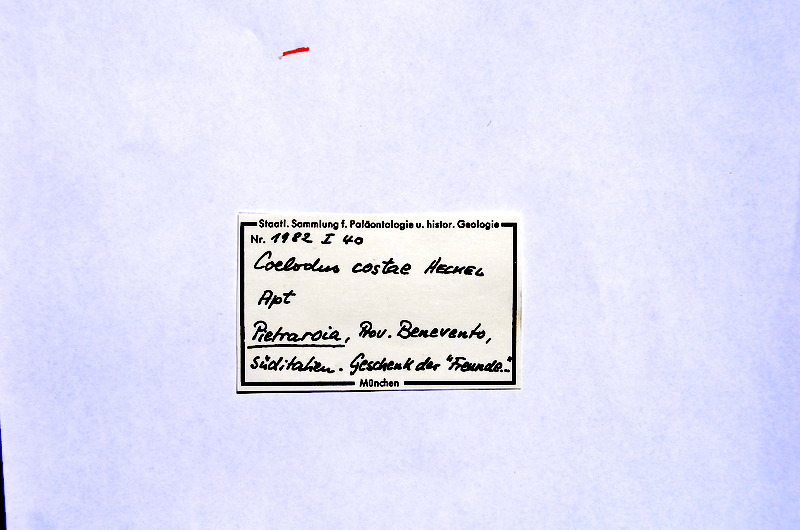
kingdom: Animalia
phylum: Chordata
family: Pycnodontes
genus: Costapycnodus
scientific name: Costapycnodus Coelodus costae
